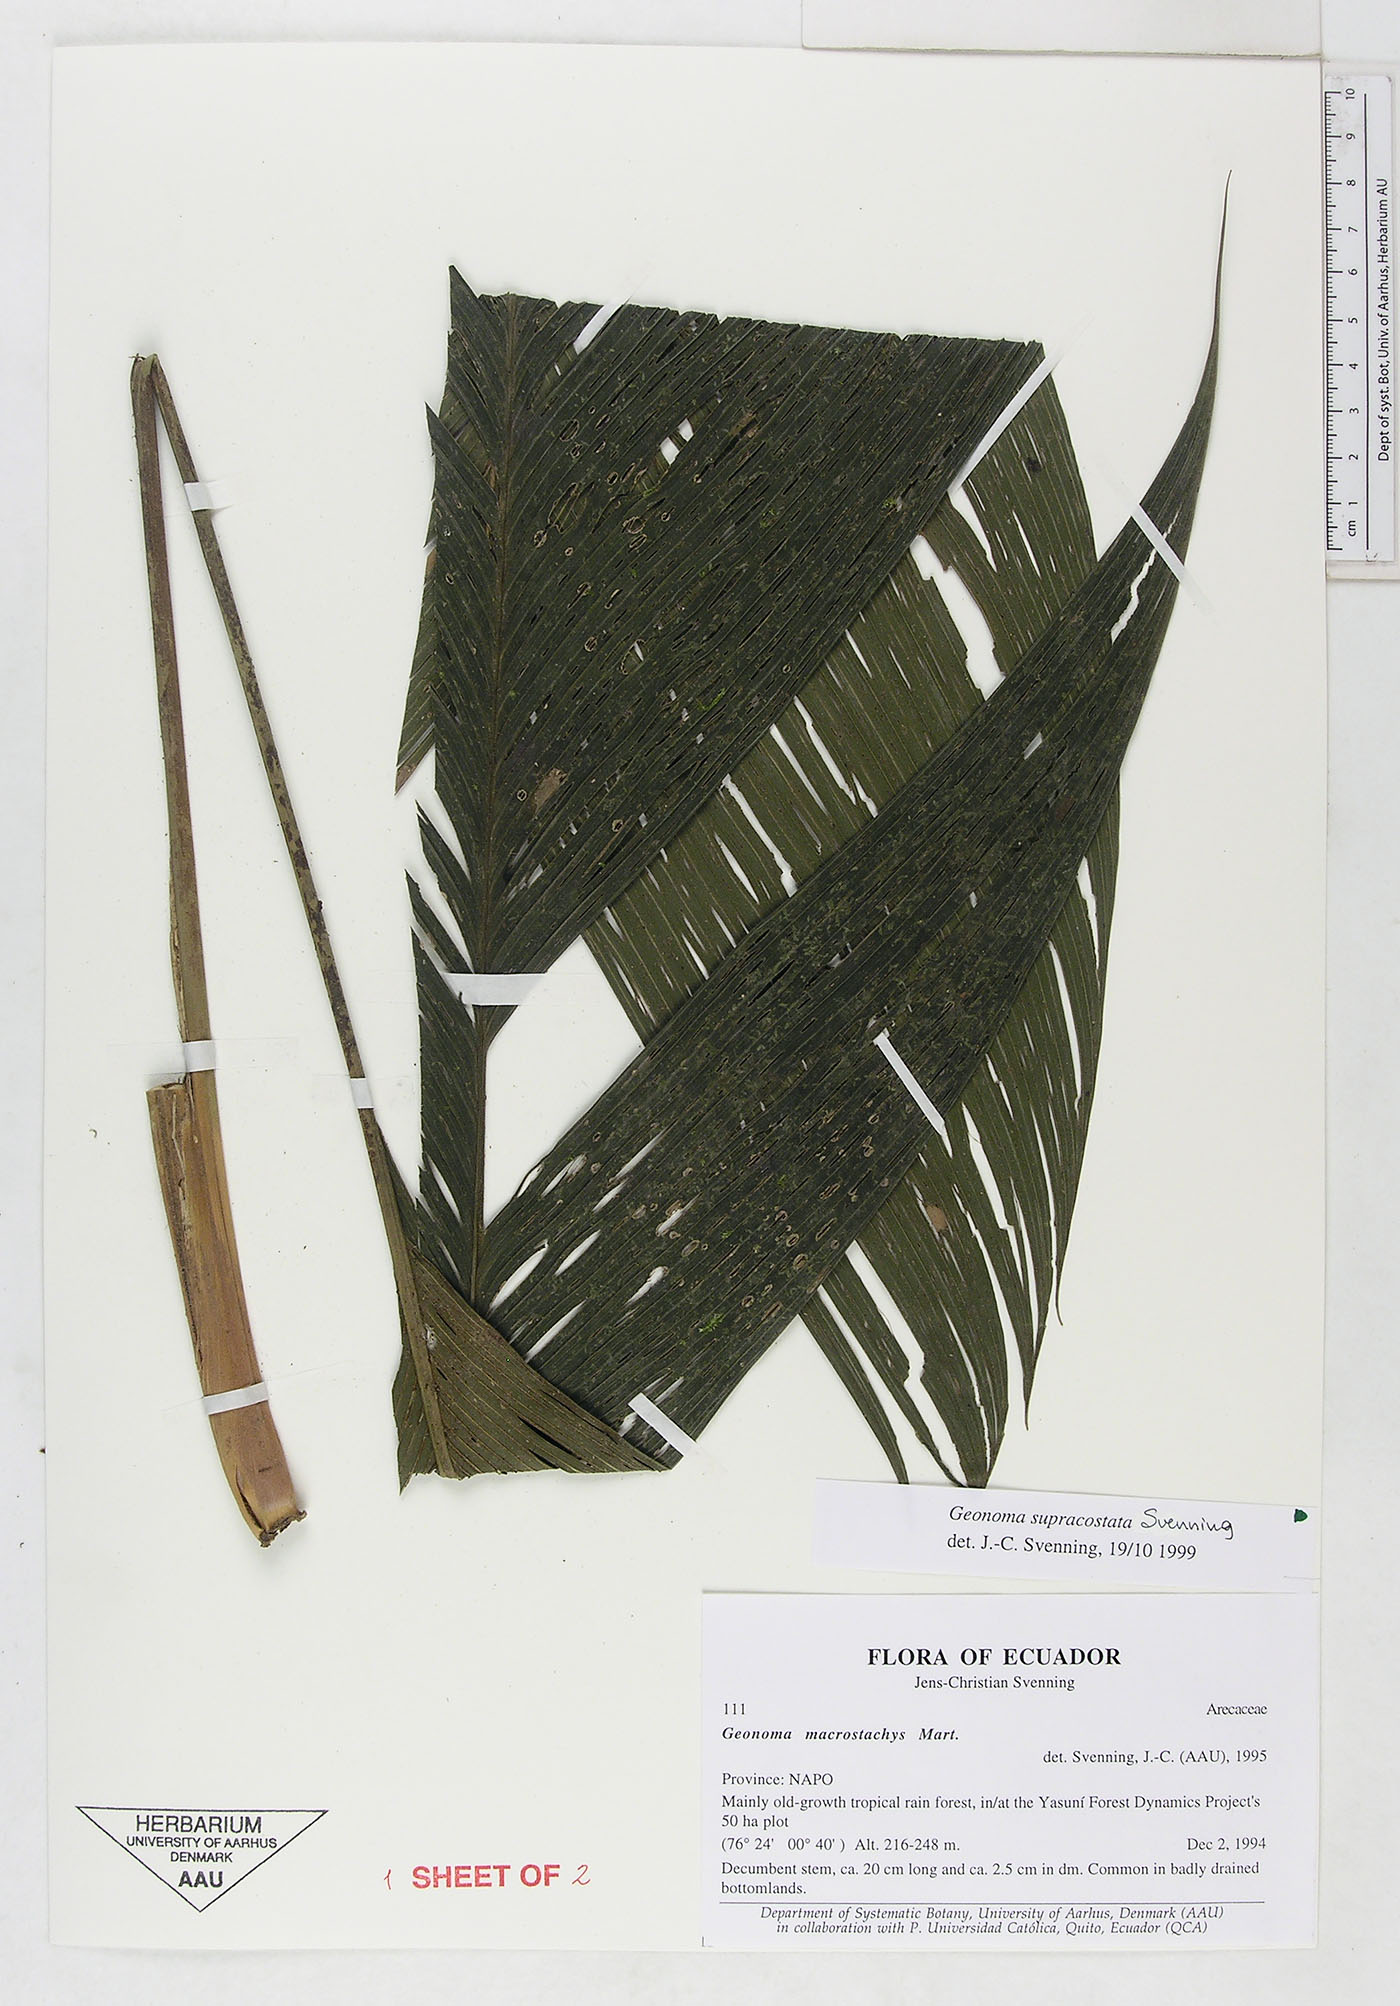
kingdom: Plantae
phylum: Tracheophyta
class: Liliopsida
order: Arecales
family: Arecaceae
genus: Geonoma
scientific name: Geonoma macrostachys
